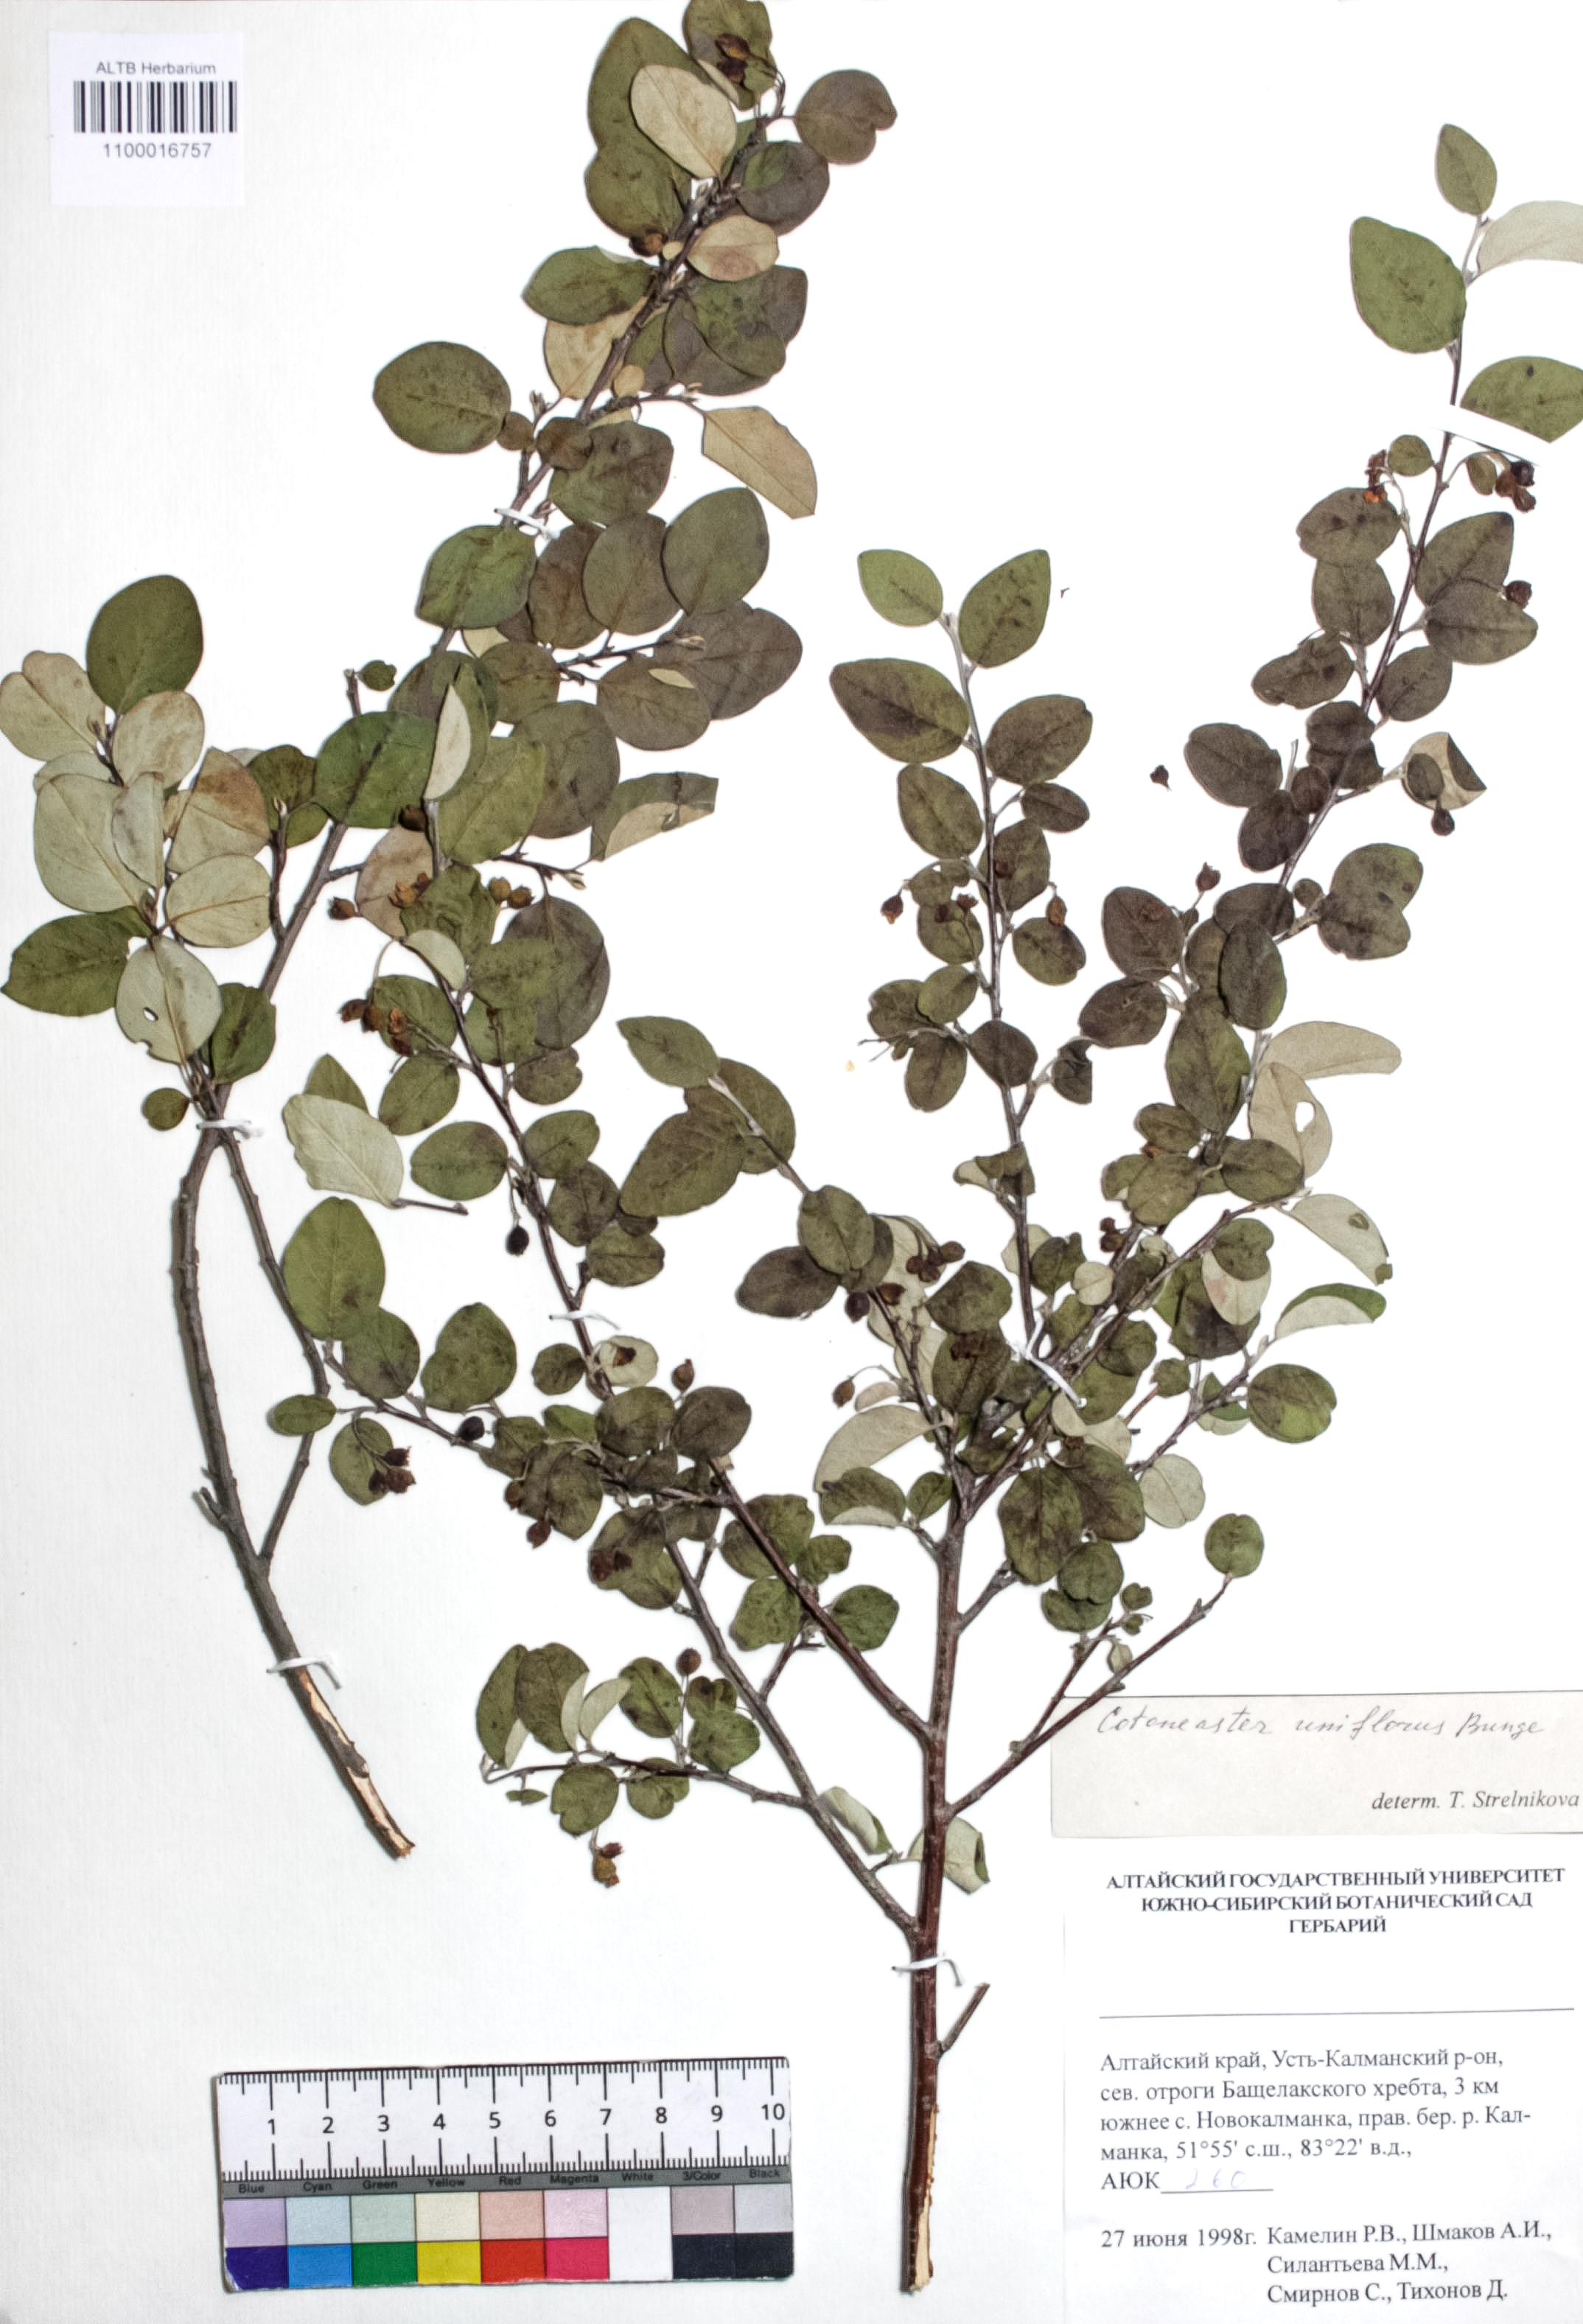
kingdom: Plantae
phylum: Tracheophyta
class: Magnoliopsida
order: Rosales
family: Rosaceae
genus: Cotoneaster
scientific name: Cotoneaster uniflorus
